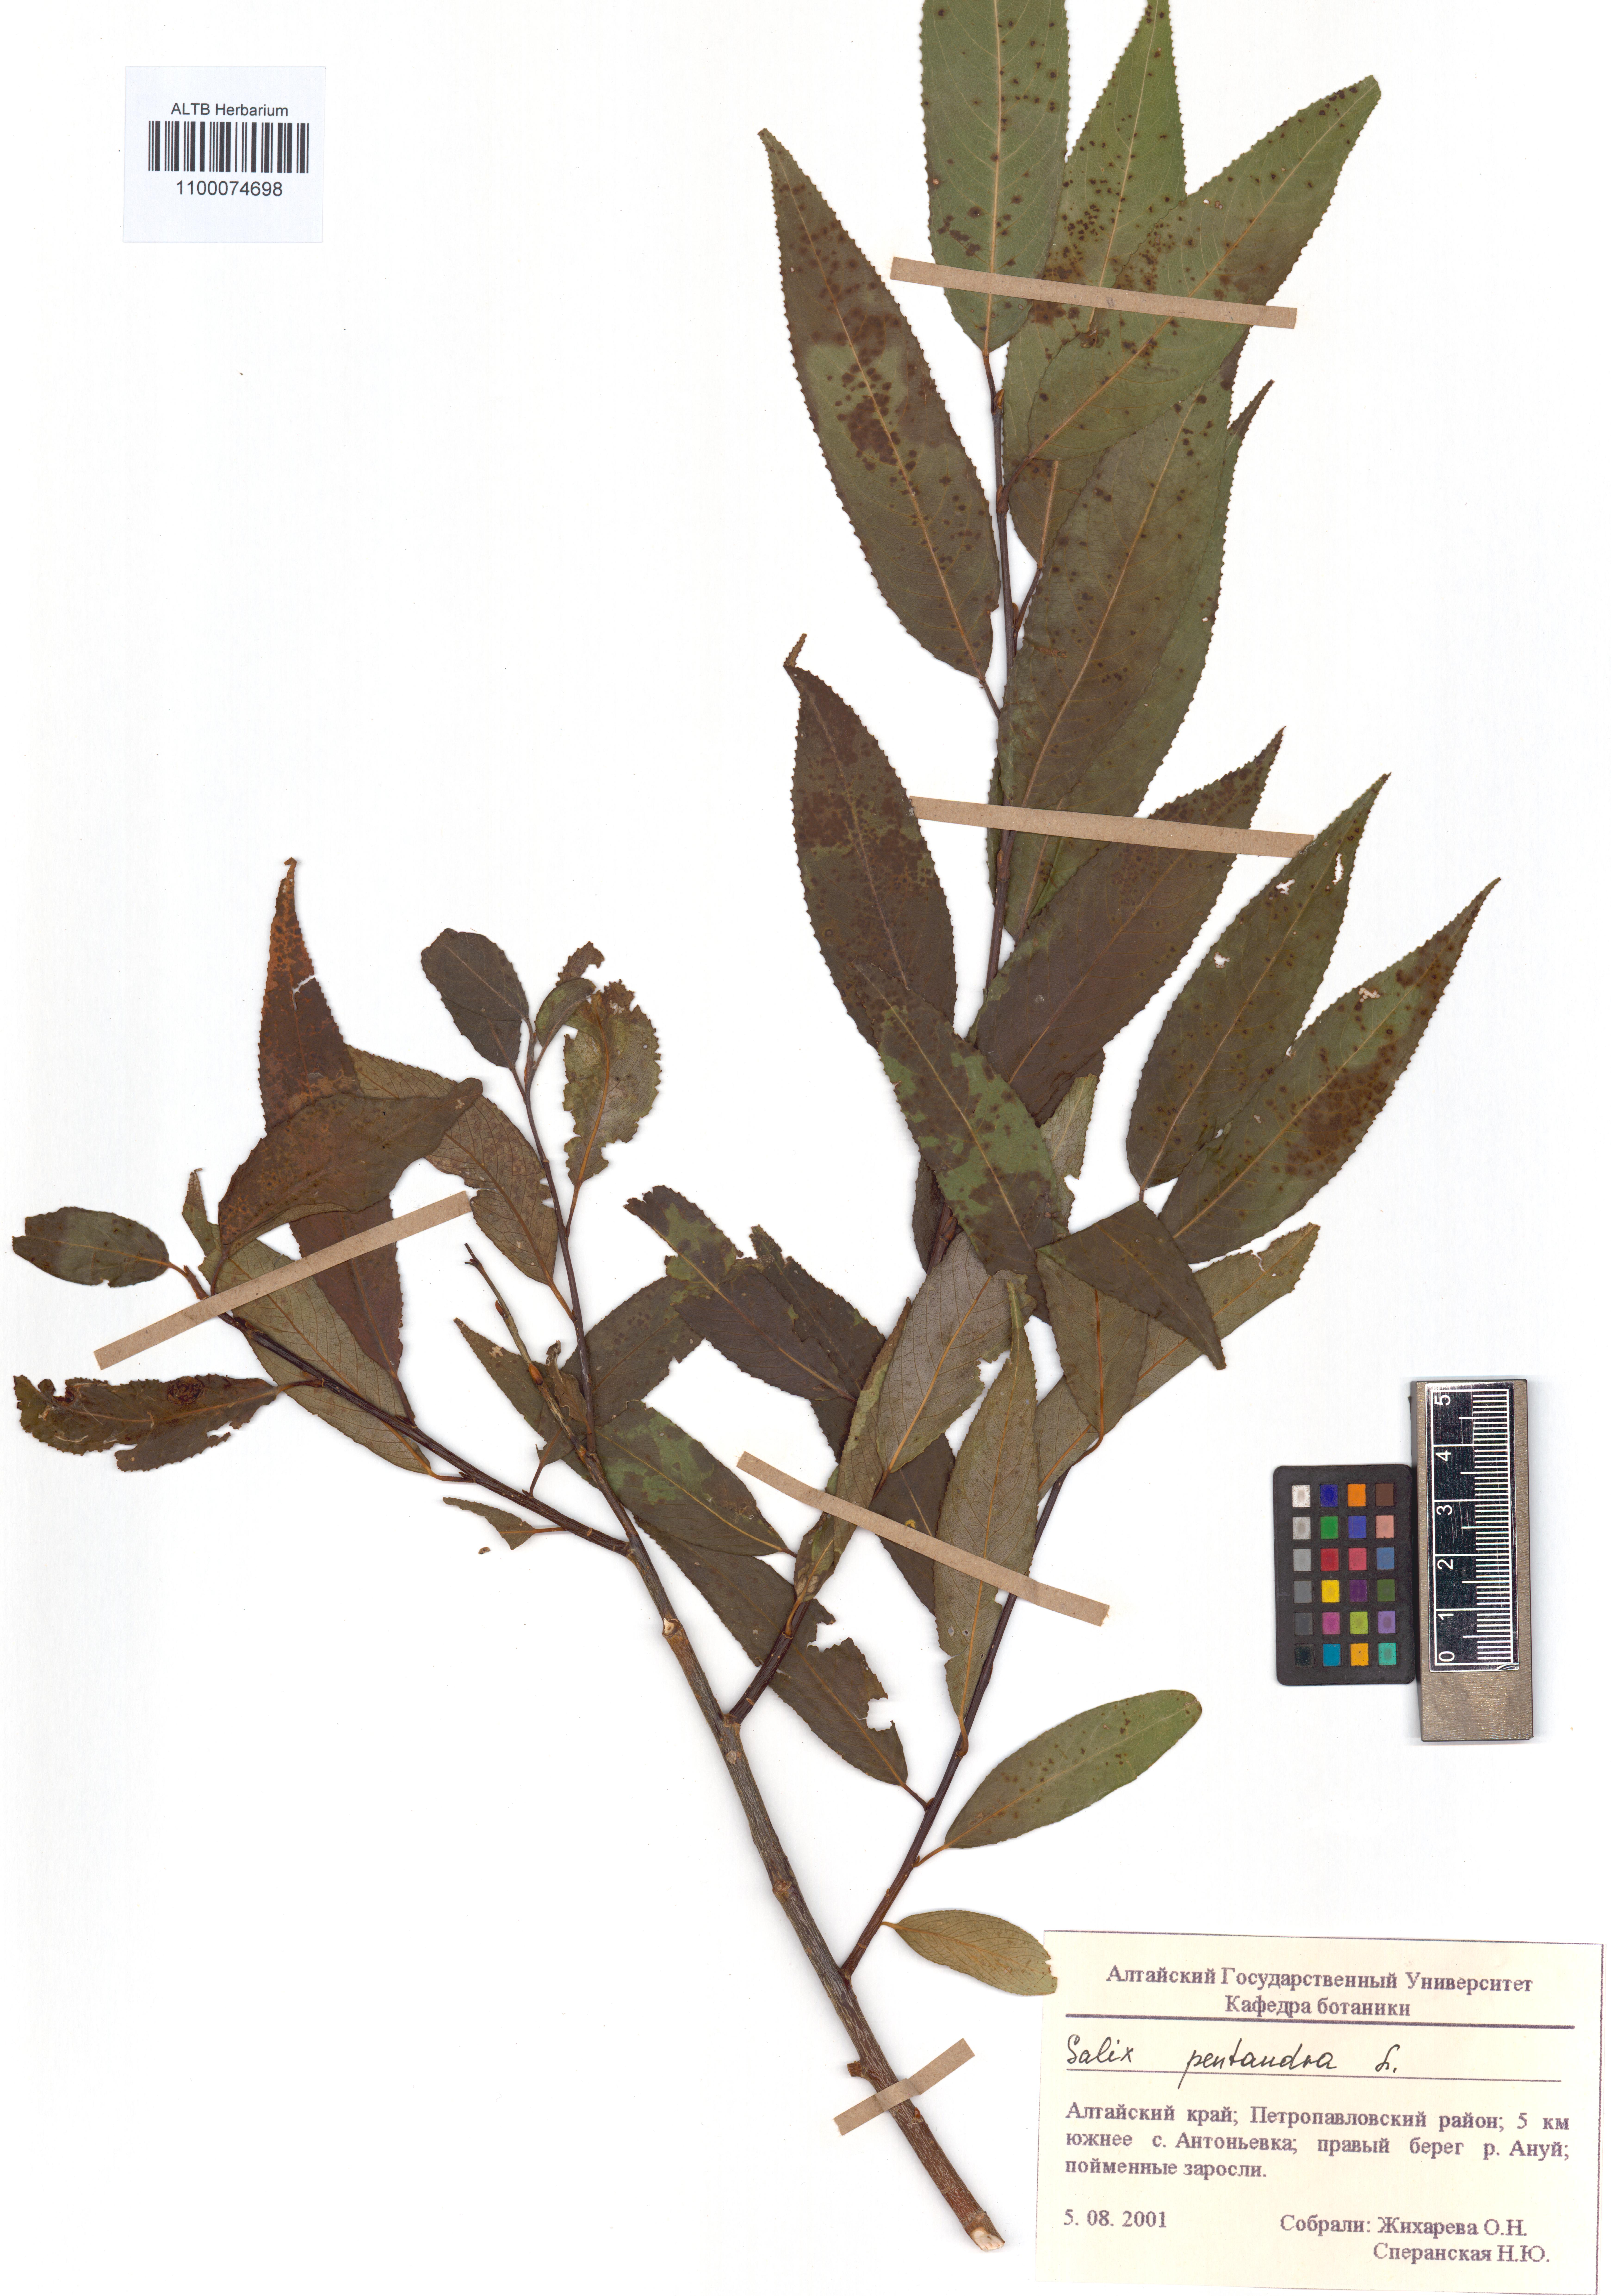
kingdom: Plantae
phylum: Tracheophyta
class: Magnoliopsida
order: Malpighiales
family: Salicaceae
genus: Salix
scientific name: Salix pentandra
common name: Bay willow
